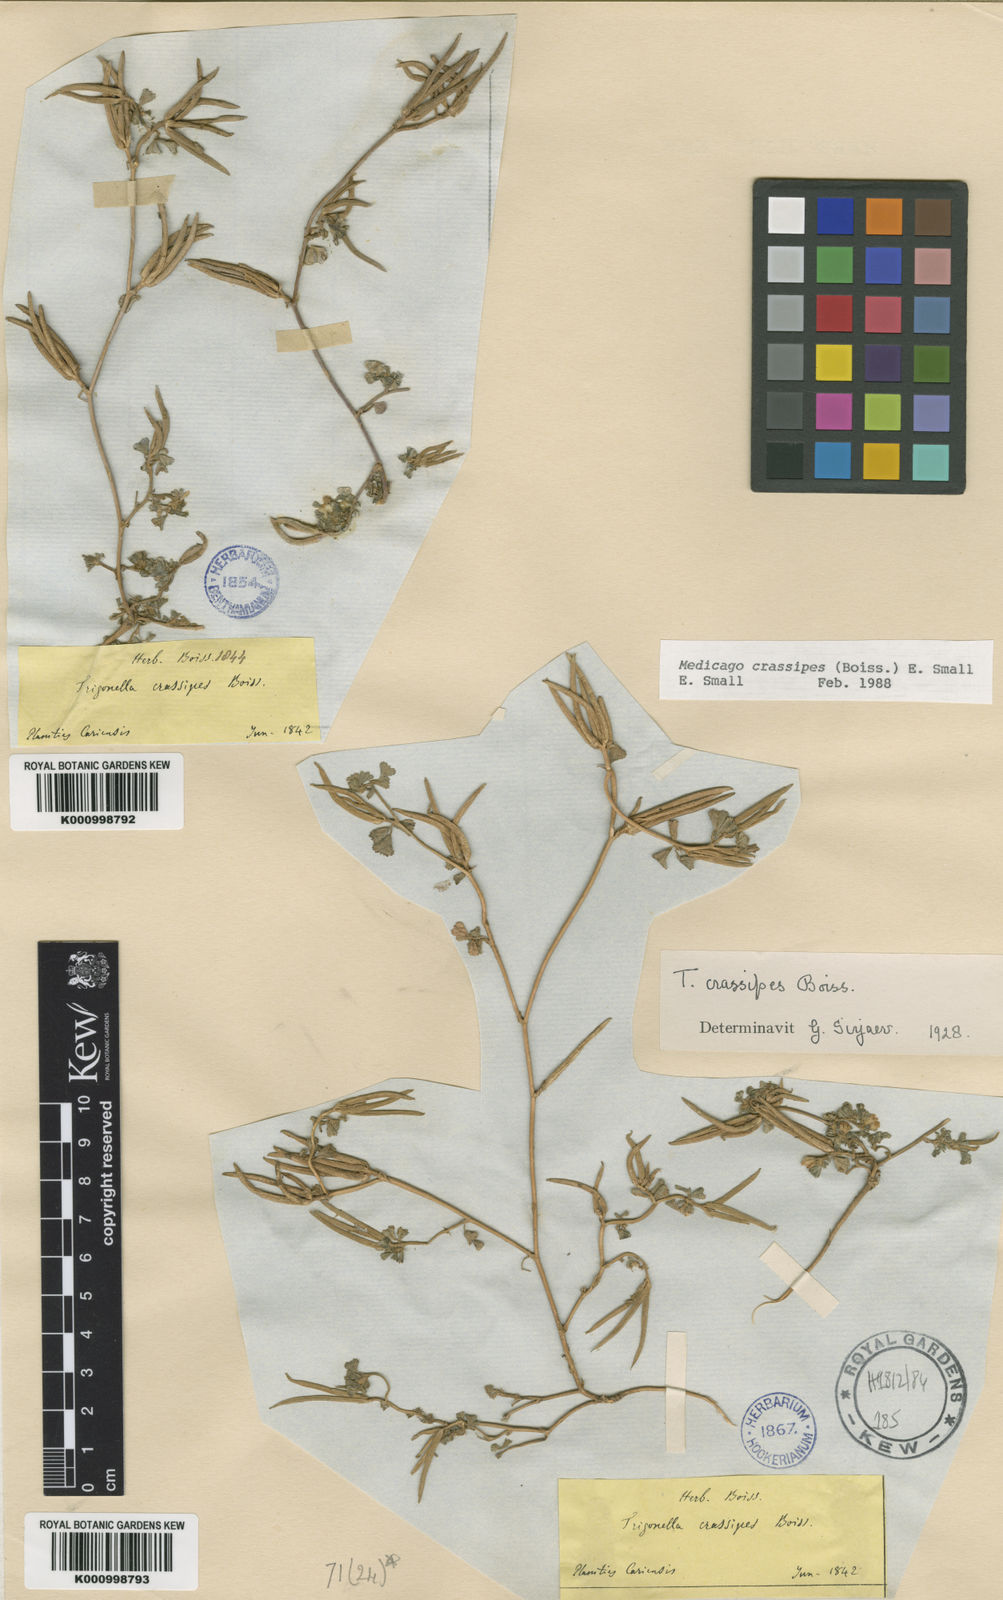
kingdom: Plantae
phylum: Tracheophyta
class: Magnoliopsida
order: Fabales
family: Fabaceae
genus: Medicago
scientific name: Medicago crassipes
